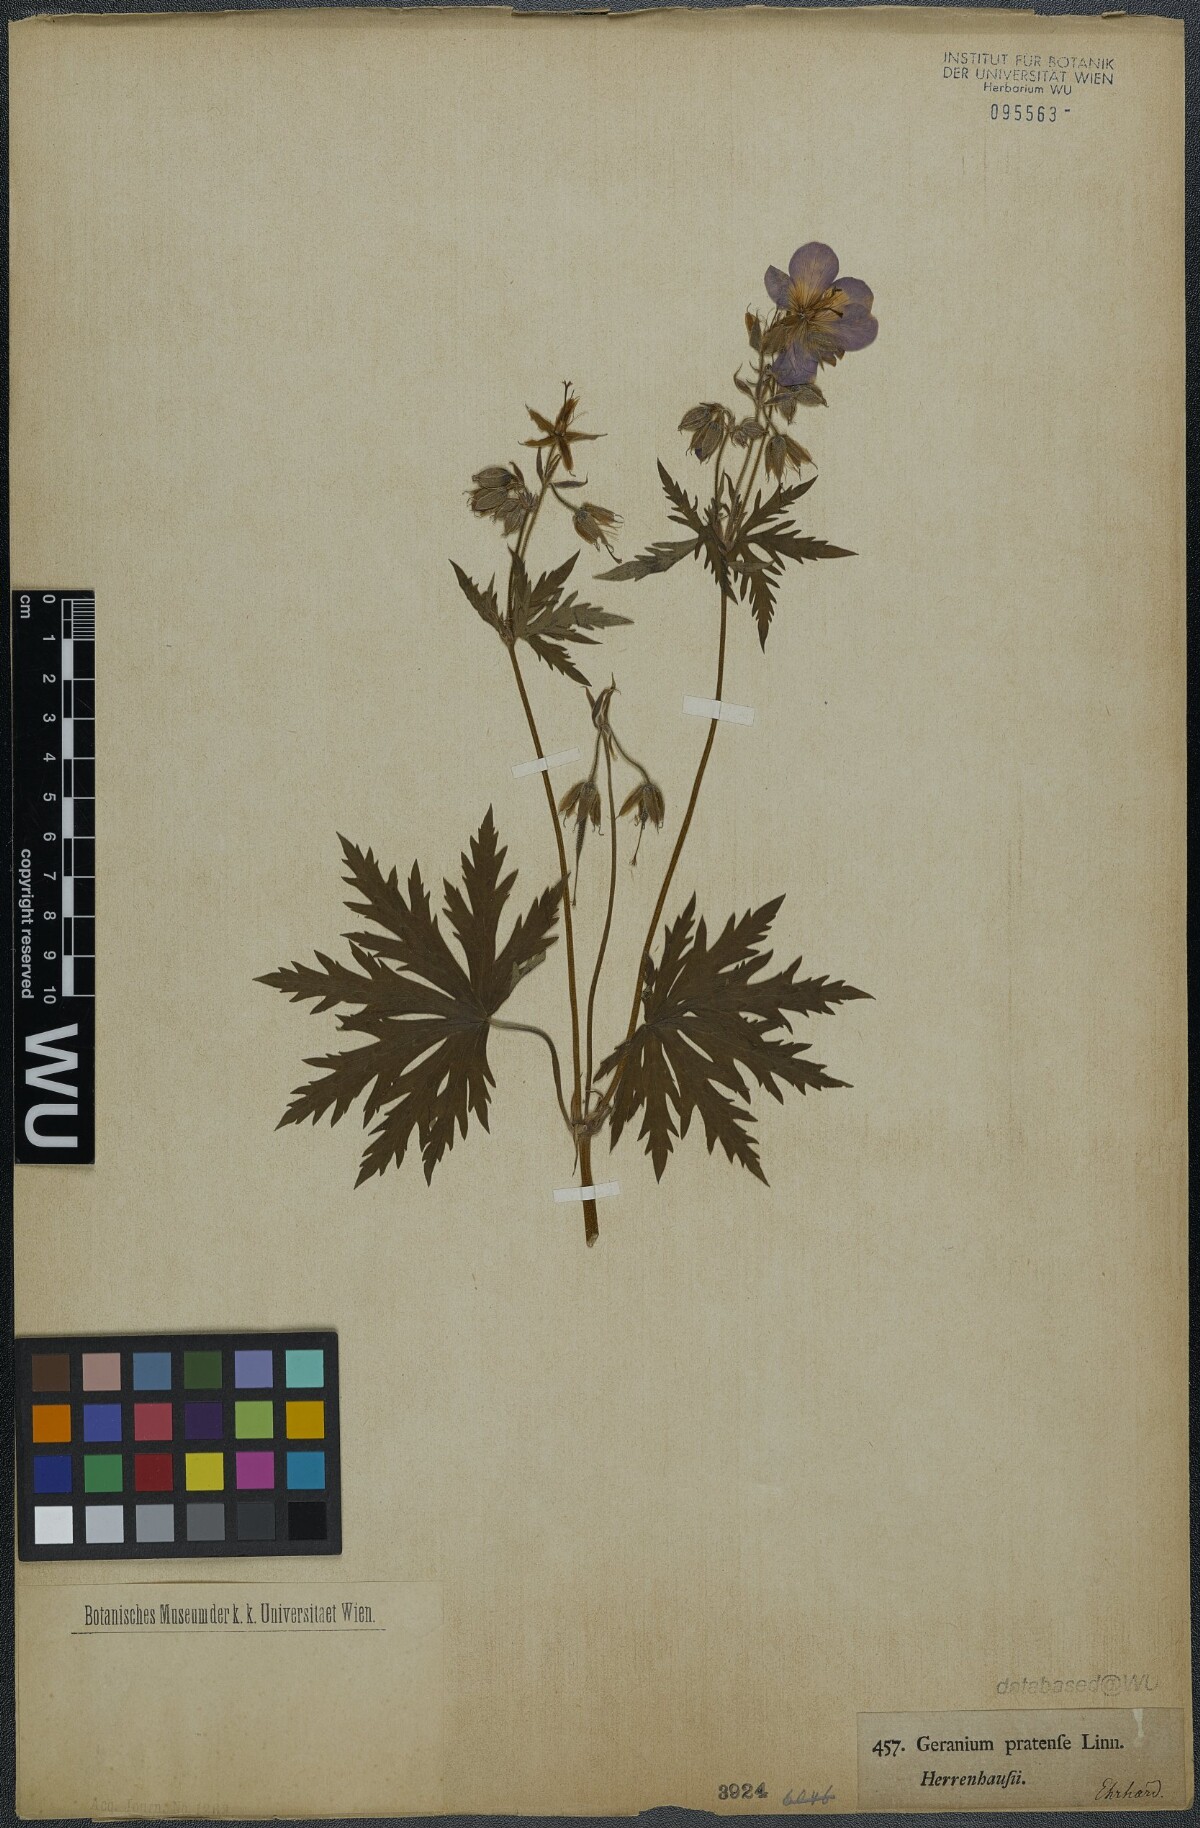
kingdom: Plantae
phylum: Tracheophyta
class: Magnoliopsida
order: Geraniales
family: Geraniaceae
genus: Geranium
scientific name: Geranium pratense
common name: Meadow crane's-bill
